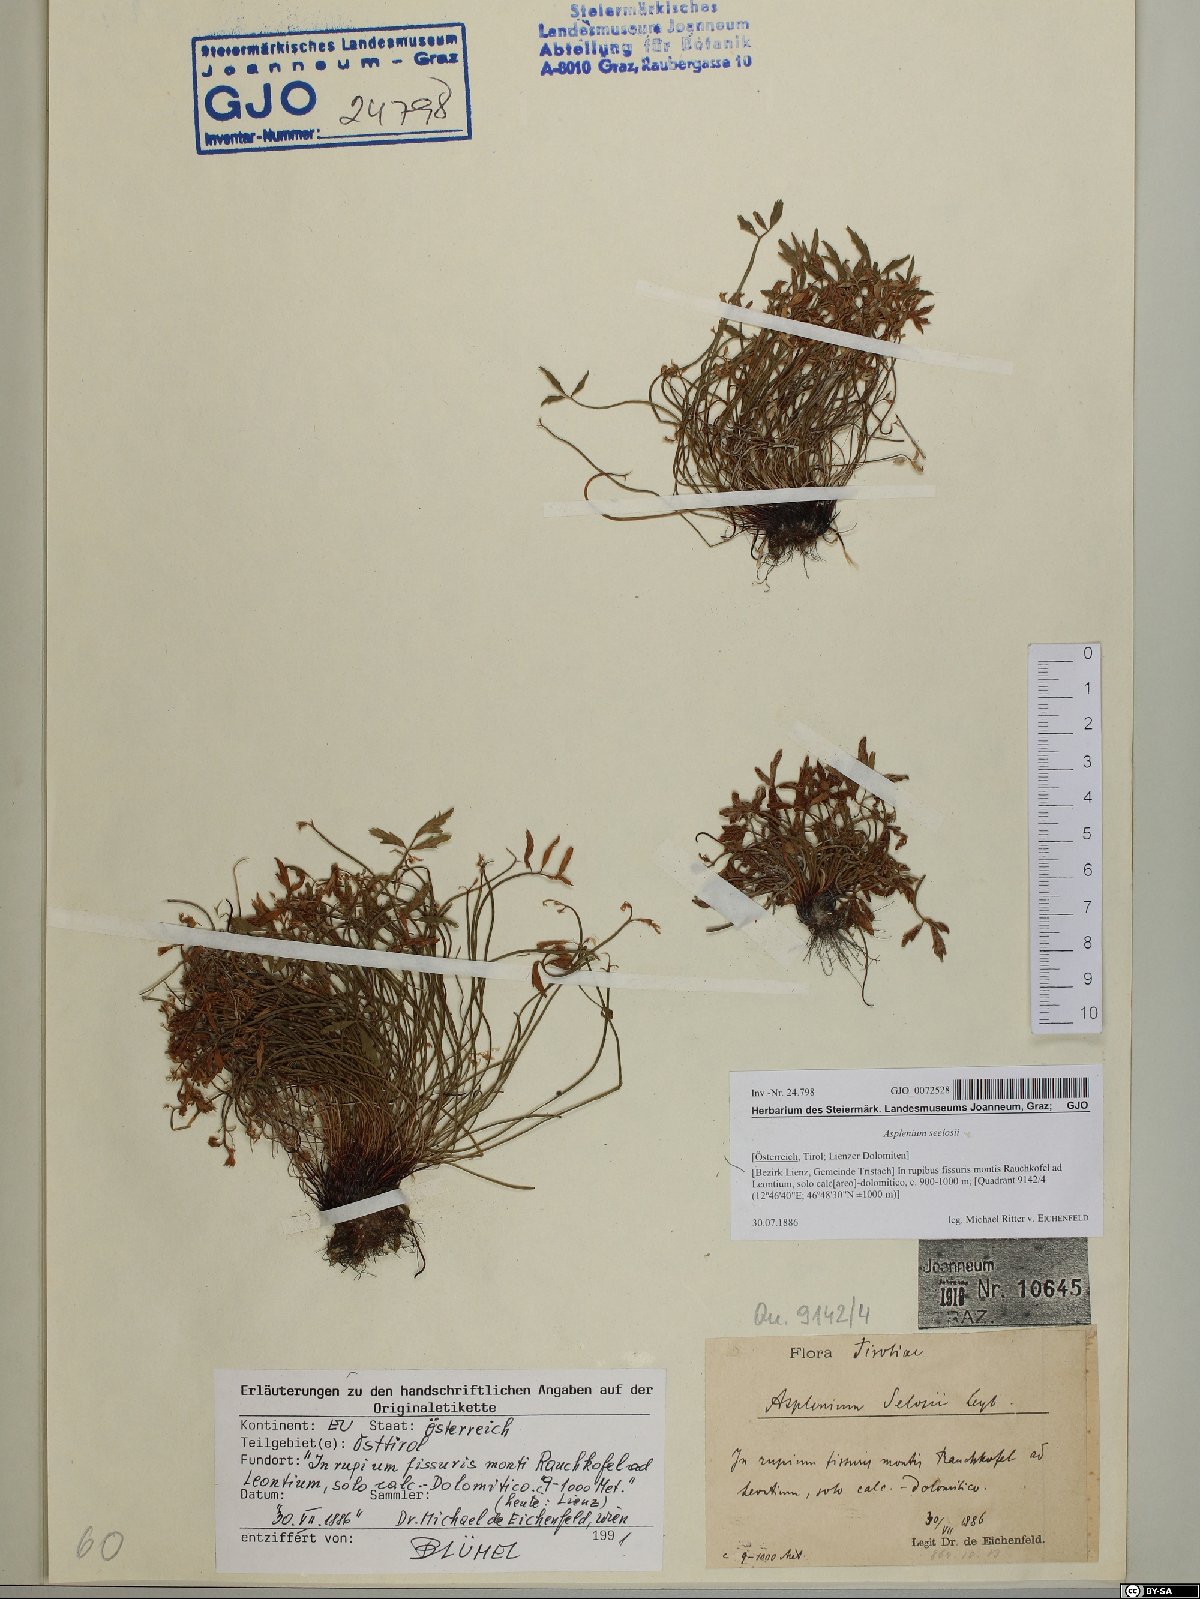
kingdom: Plantae
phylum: Tracheophyta
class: Polypodiopsida
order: Polypodiales
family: Aspleniaceae
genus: Asplenium
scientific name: Asplenium seelosii
